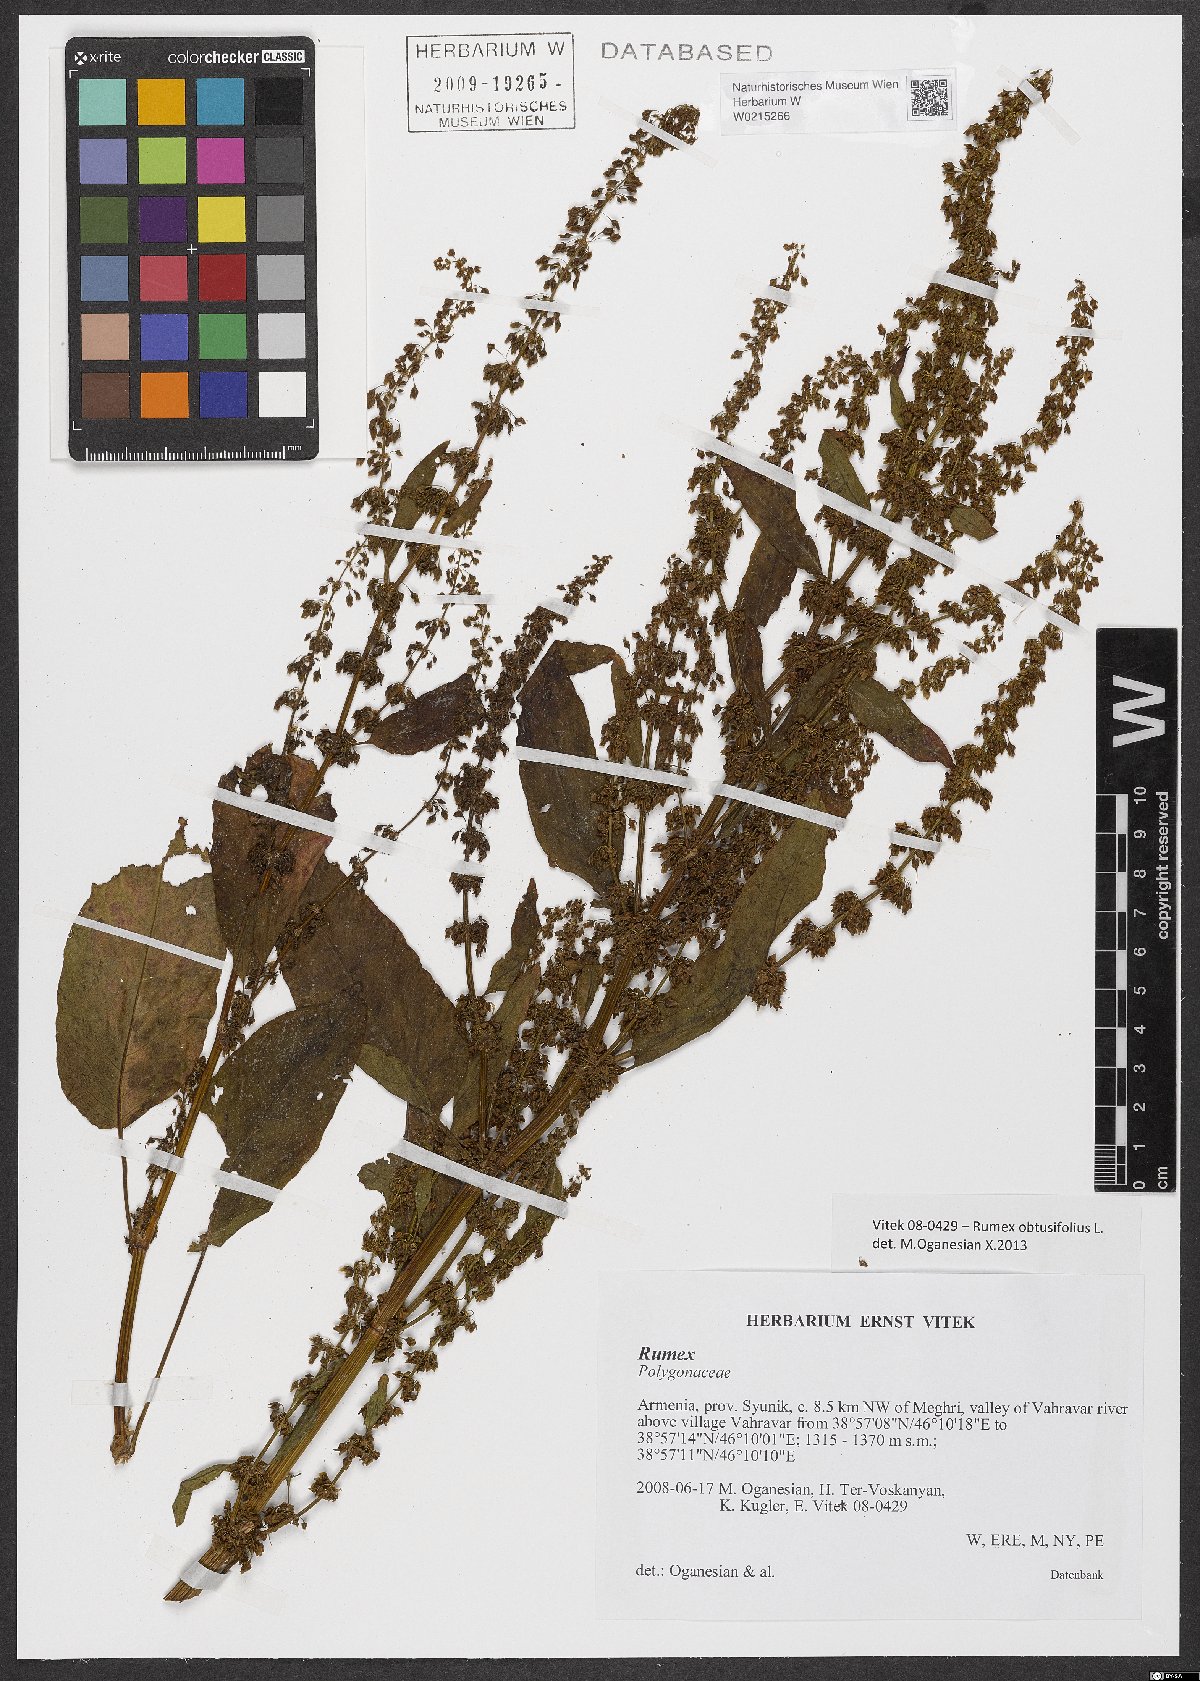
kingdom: Plantae
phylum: Tracheophyta
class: Magnoliopsida
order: Caryophyllales
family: Polygonaceae
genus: Rumex
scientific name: Rumex obtusifolius
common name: Bitter dock
